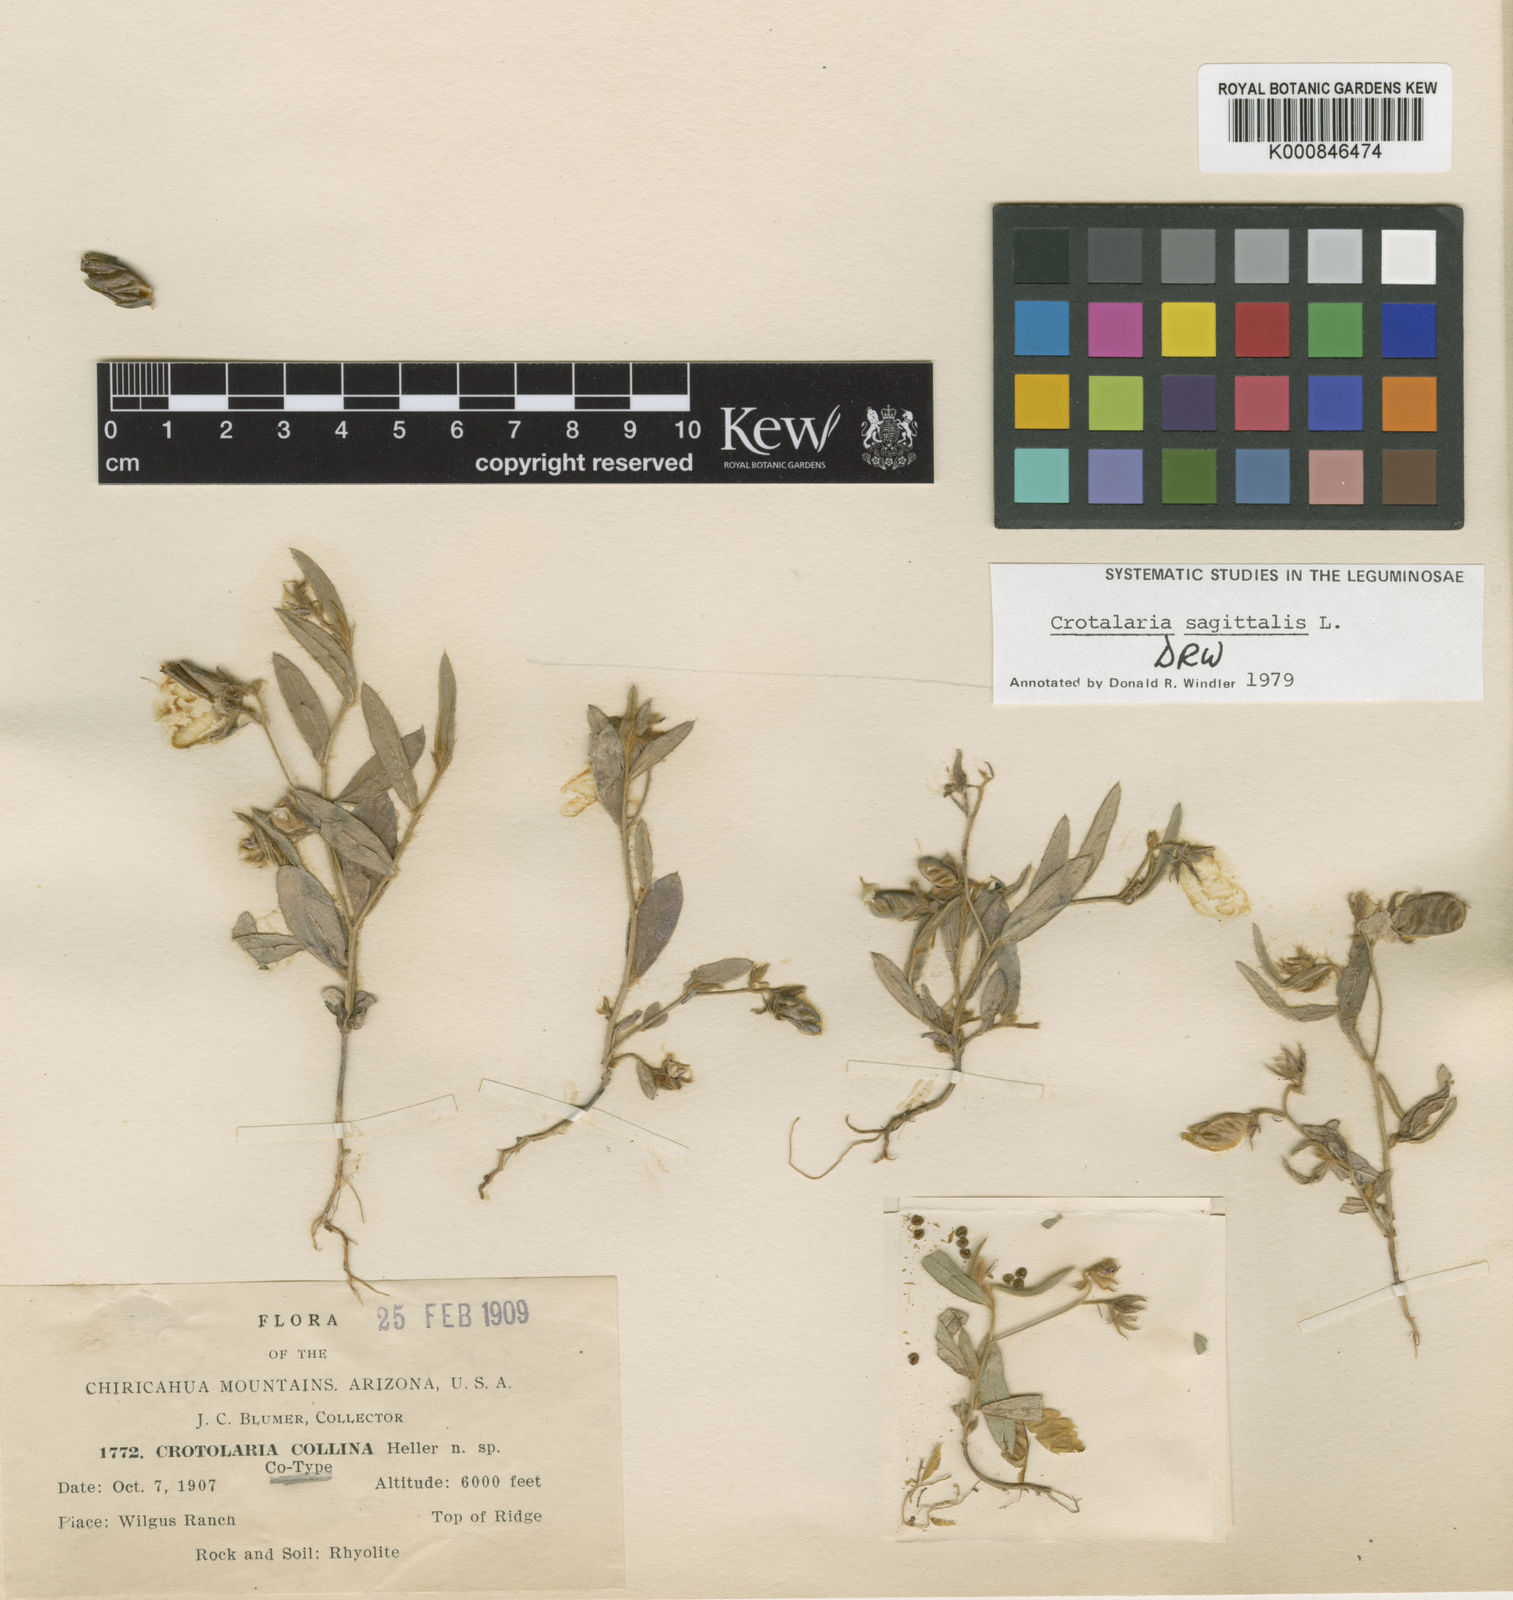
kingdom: Plantae
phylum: Tracheophyta
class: Magnoliopsida
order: Fabales
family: Fabaceae
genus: Crotalaria
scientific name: Crotalaria sagittalis
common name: Arrowhead rattlebox
